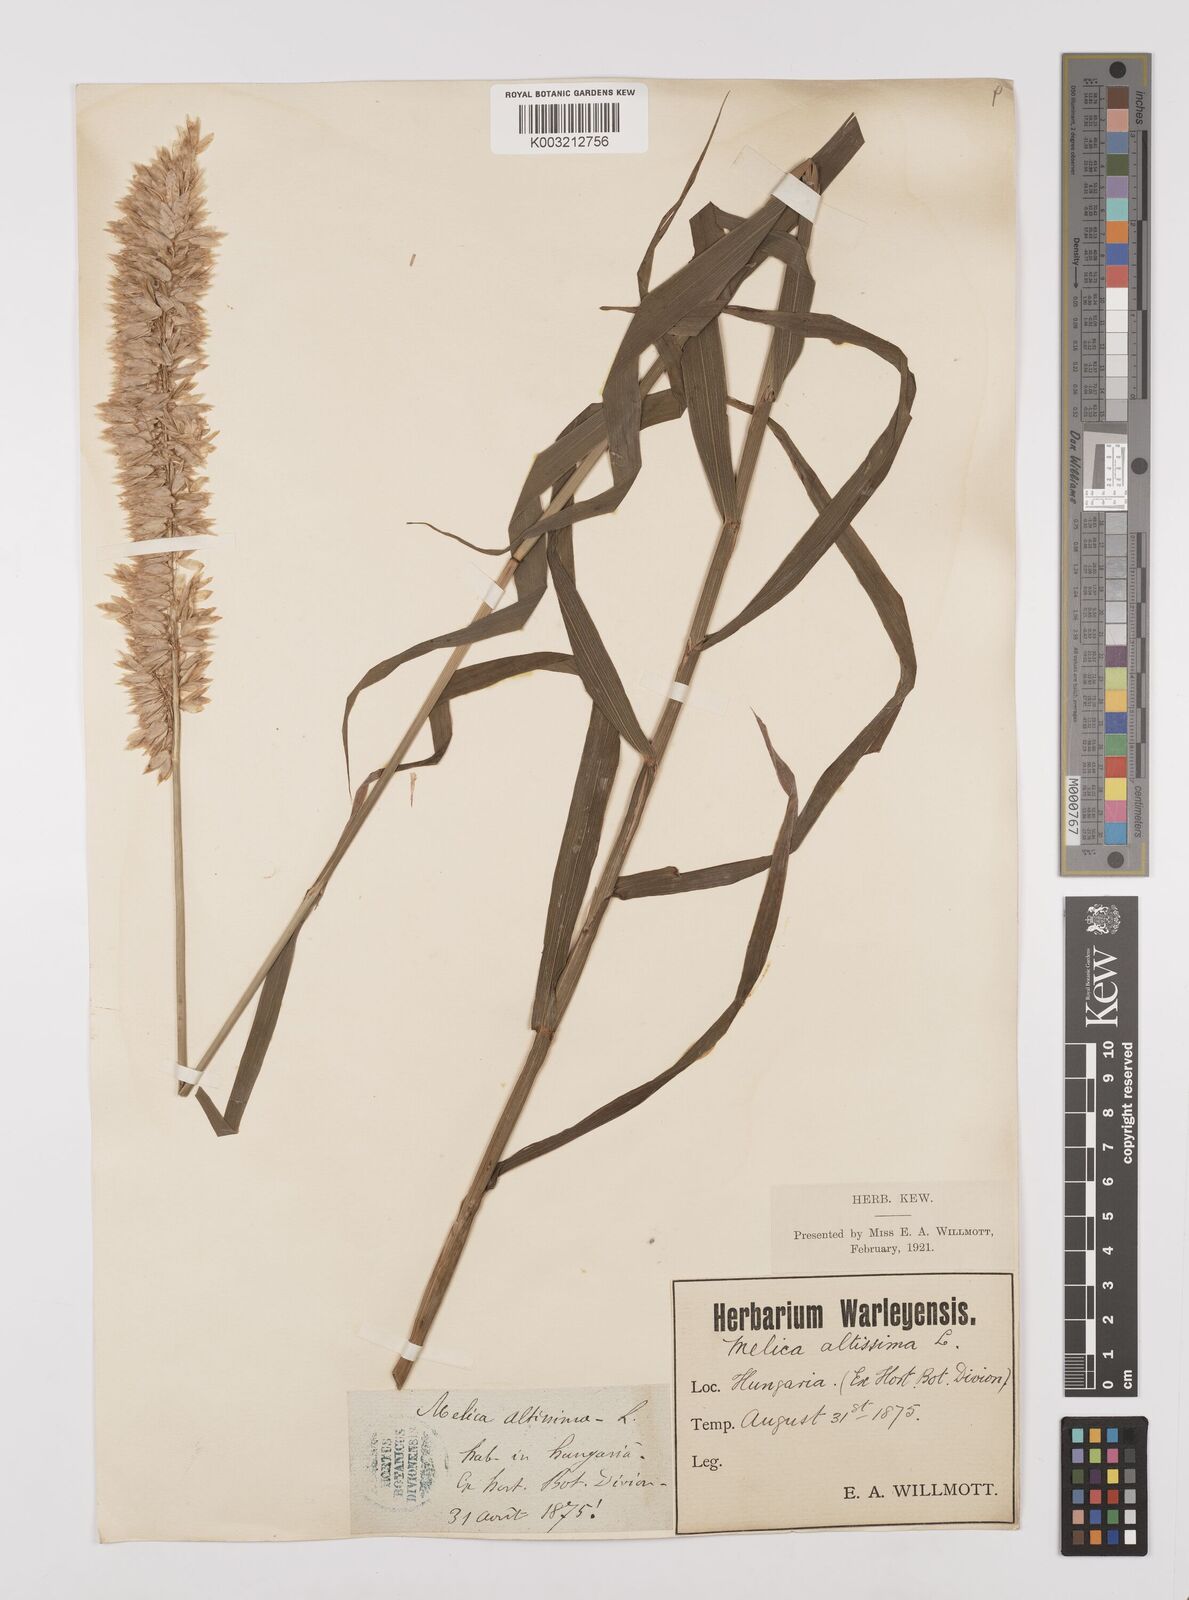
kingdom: Plantae
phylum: Tracheophyta
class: Liliopsida
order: Poales
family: Poaceae
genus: Melica
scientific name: Melica altissima
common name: Siberian melicgrass
